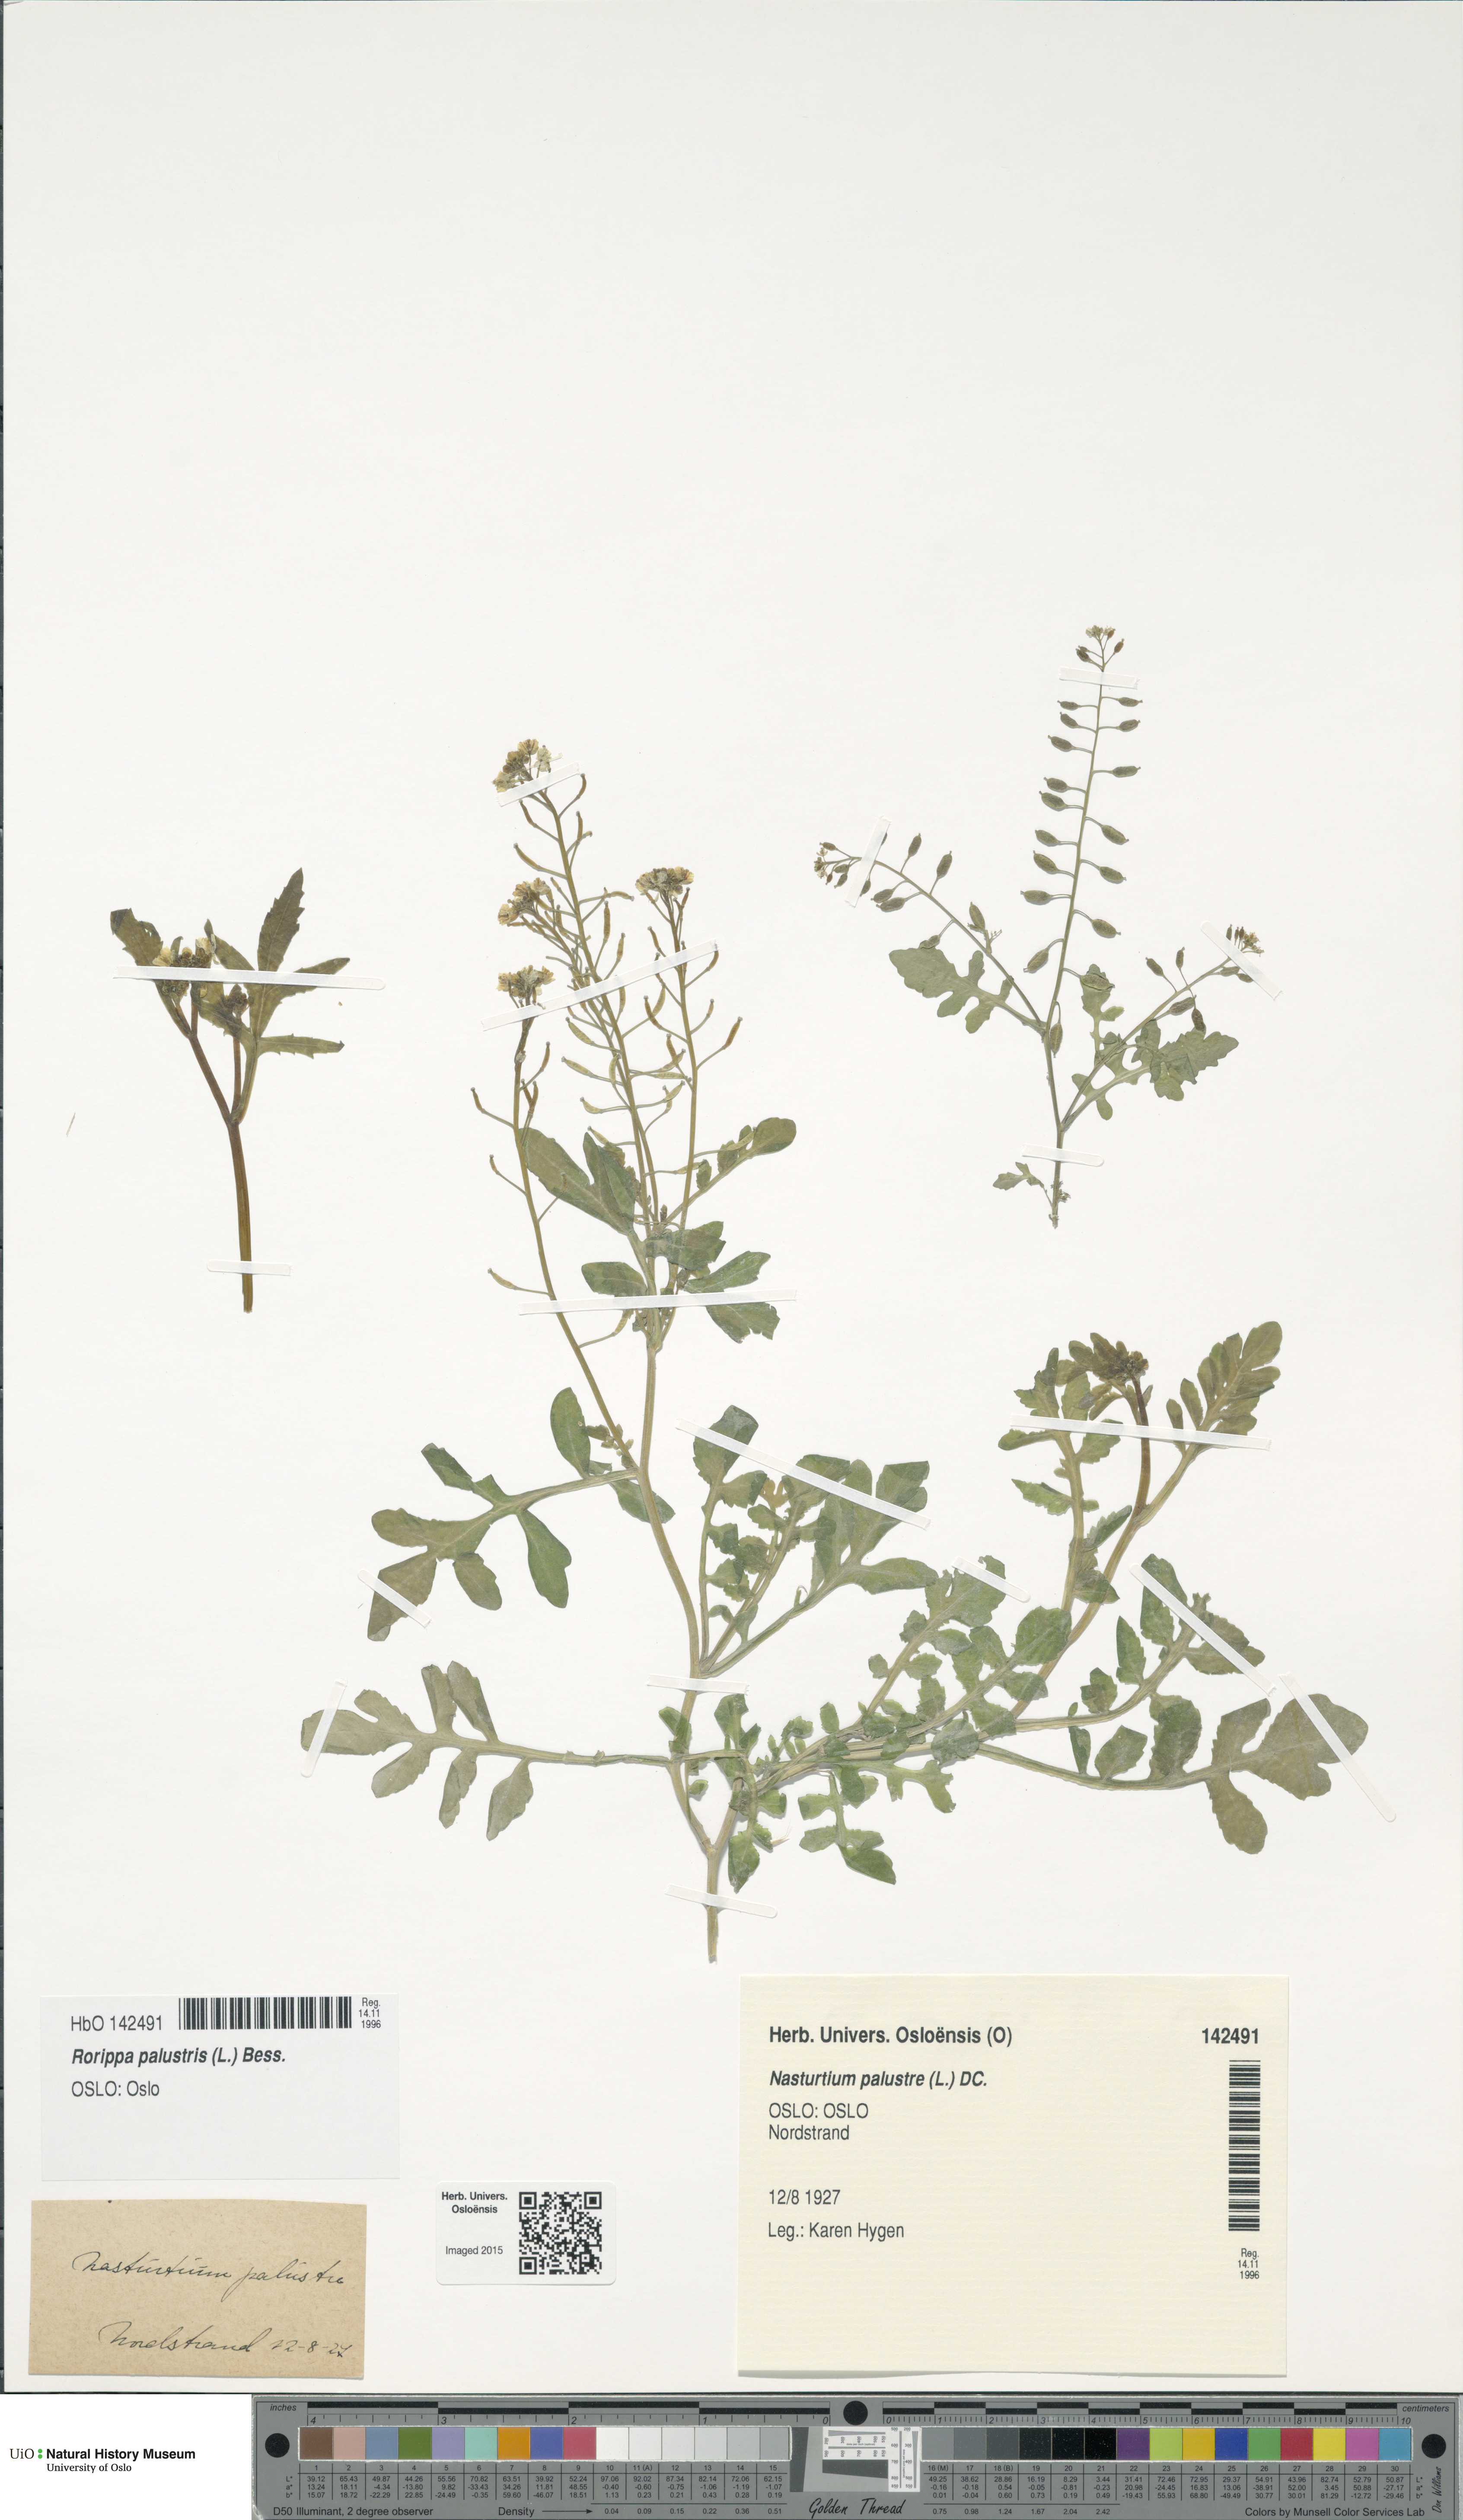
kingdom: Plantae
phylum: Tracheophyta
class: Magnoliopsida
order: Brassicales
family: Brassicaceae
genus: Rorippa
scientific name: Rorippa palustris
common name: Marsh yellow-cress
